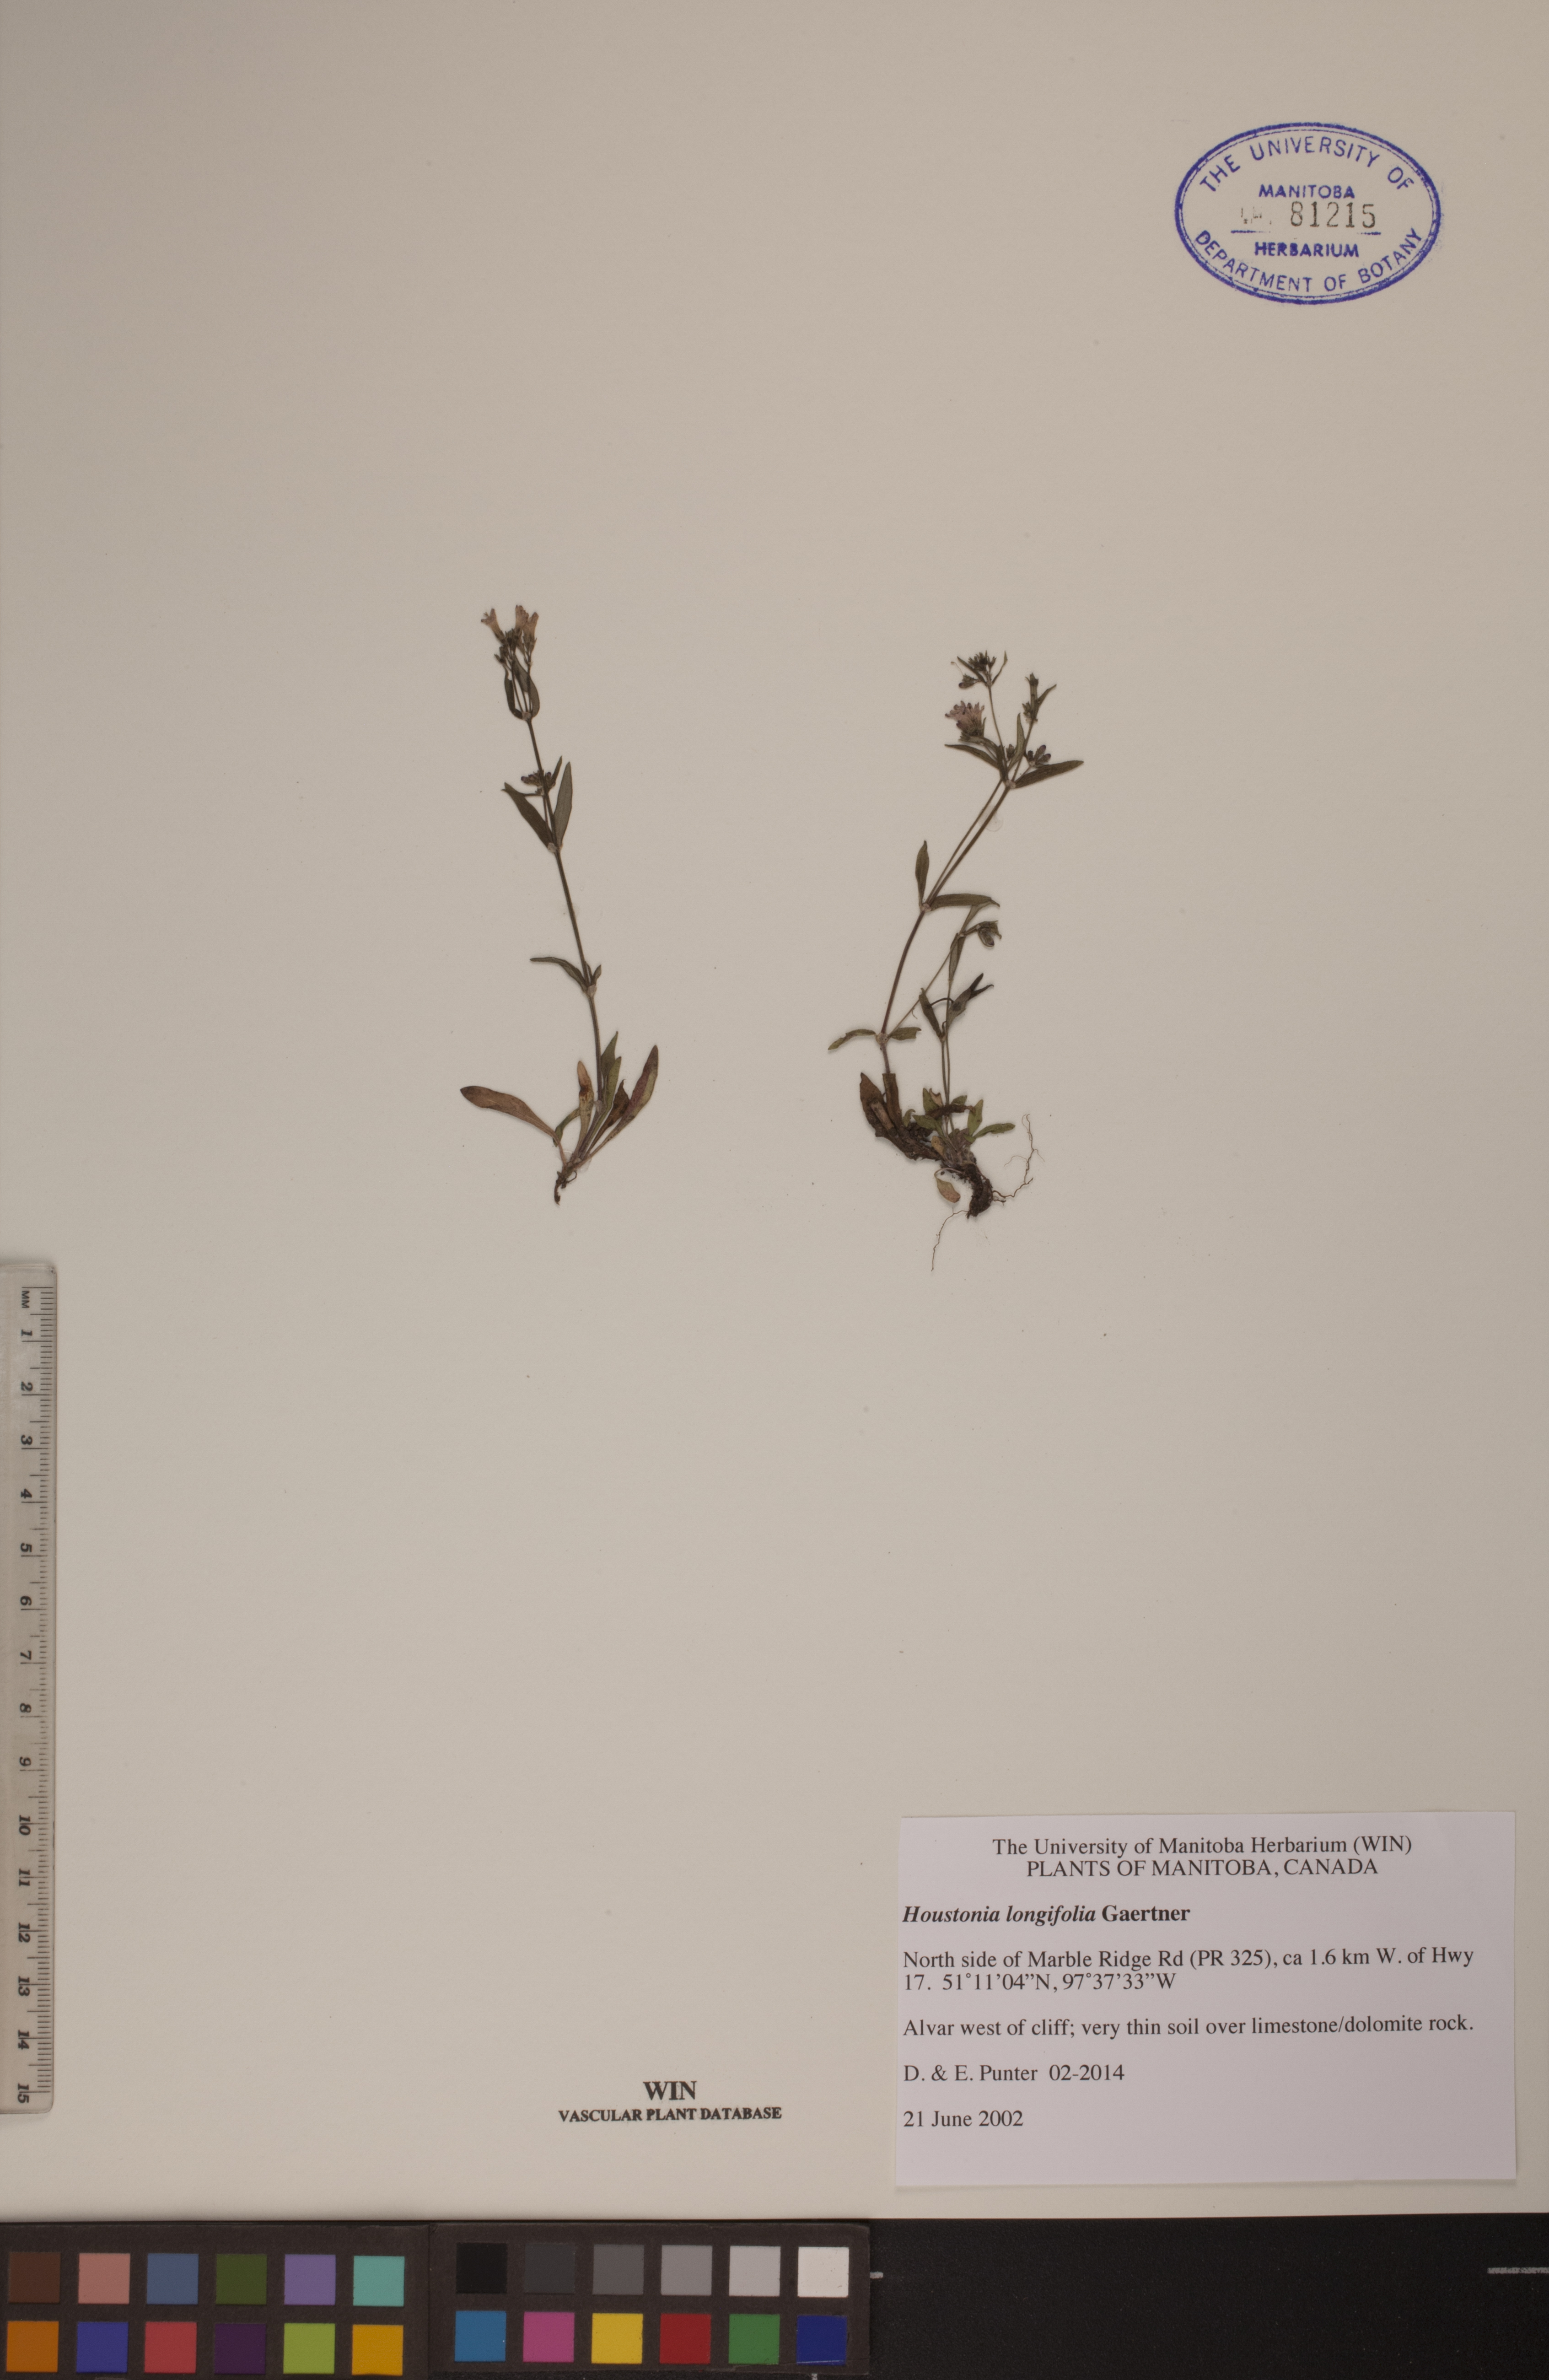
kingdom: Plantae
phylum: Tracheophyta
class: Magnoliopsida
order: Gentianales
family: Rubiaceae
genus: Houstonia
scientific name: Houstonia longifolia
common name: Long-leaved bluets
